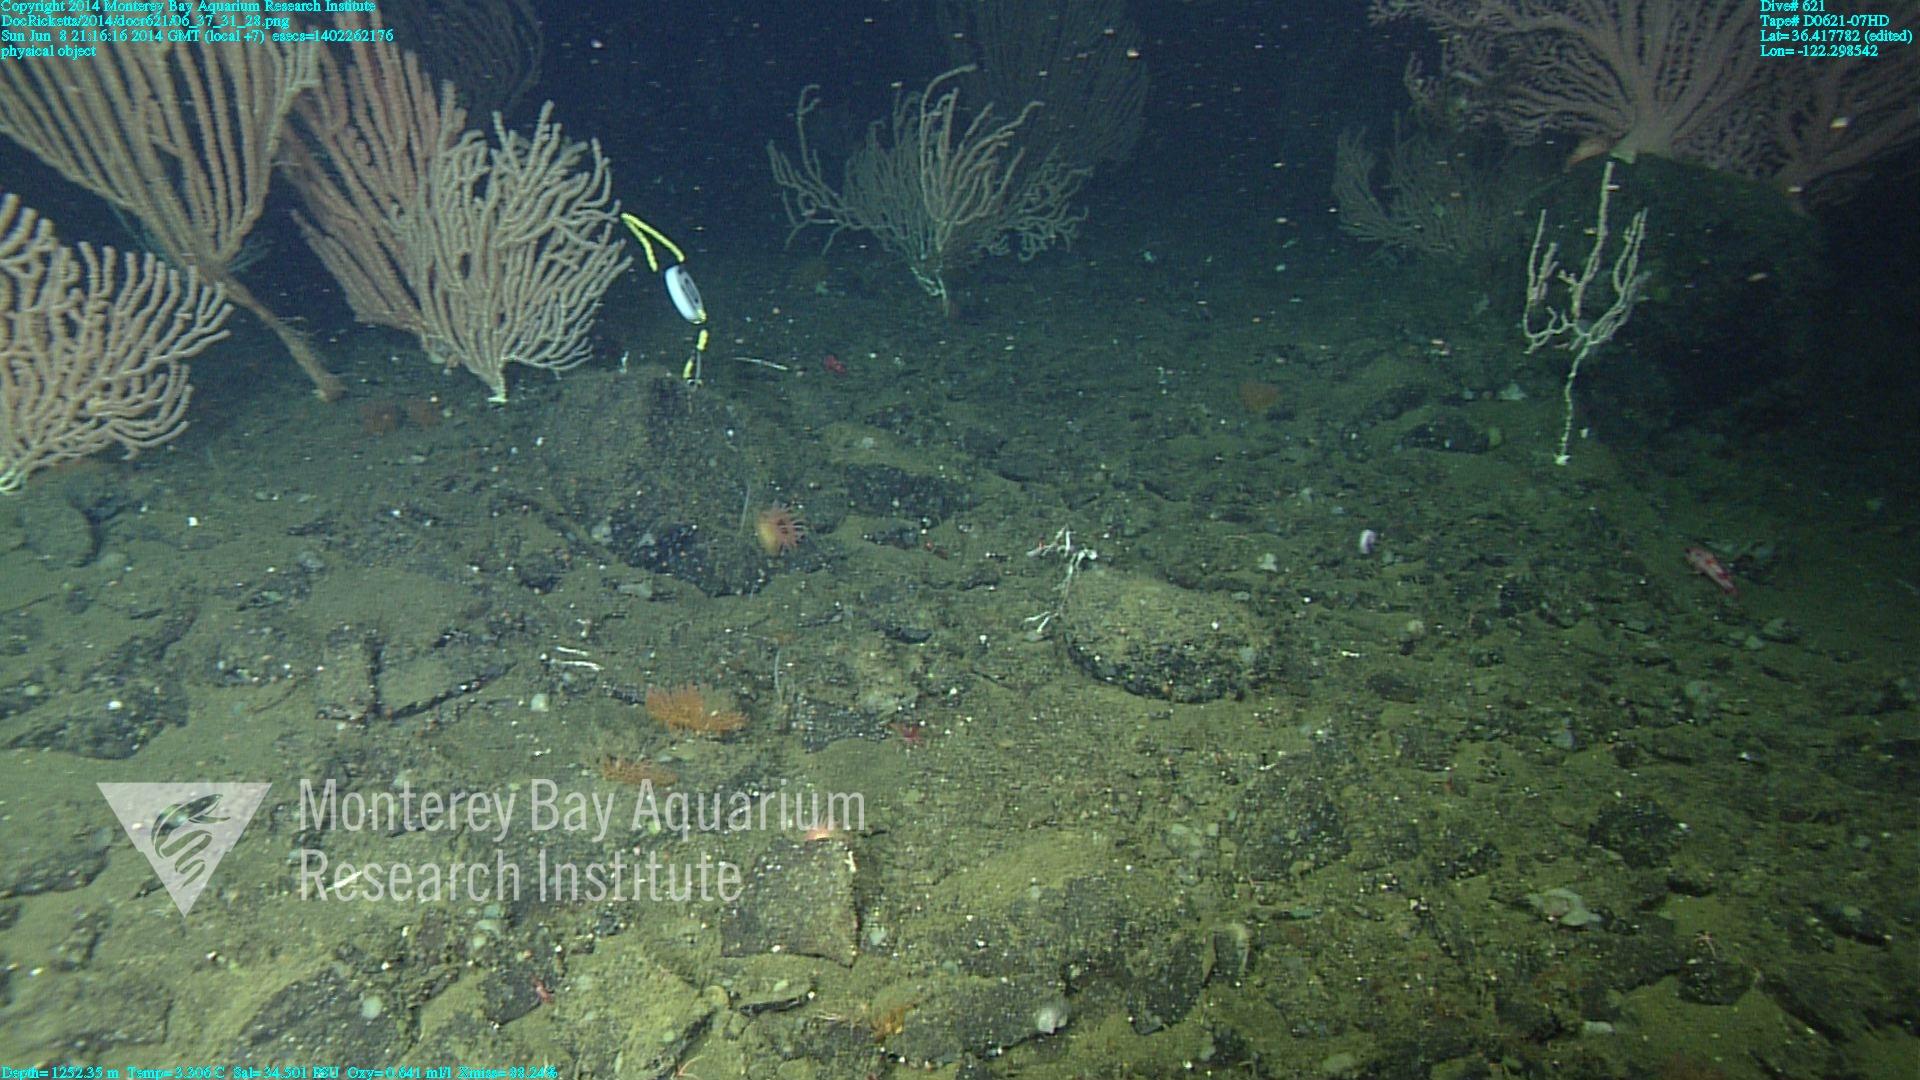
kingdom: Animalia
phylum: Cnidaria
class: Anthozoa
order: Scleralcyonacea
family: Keratoisididae
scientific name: Keratoisididae
